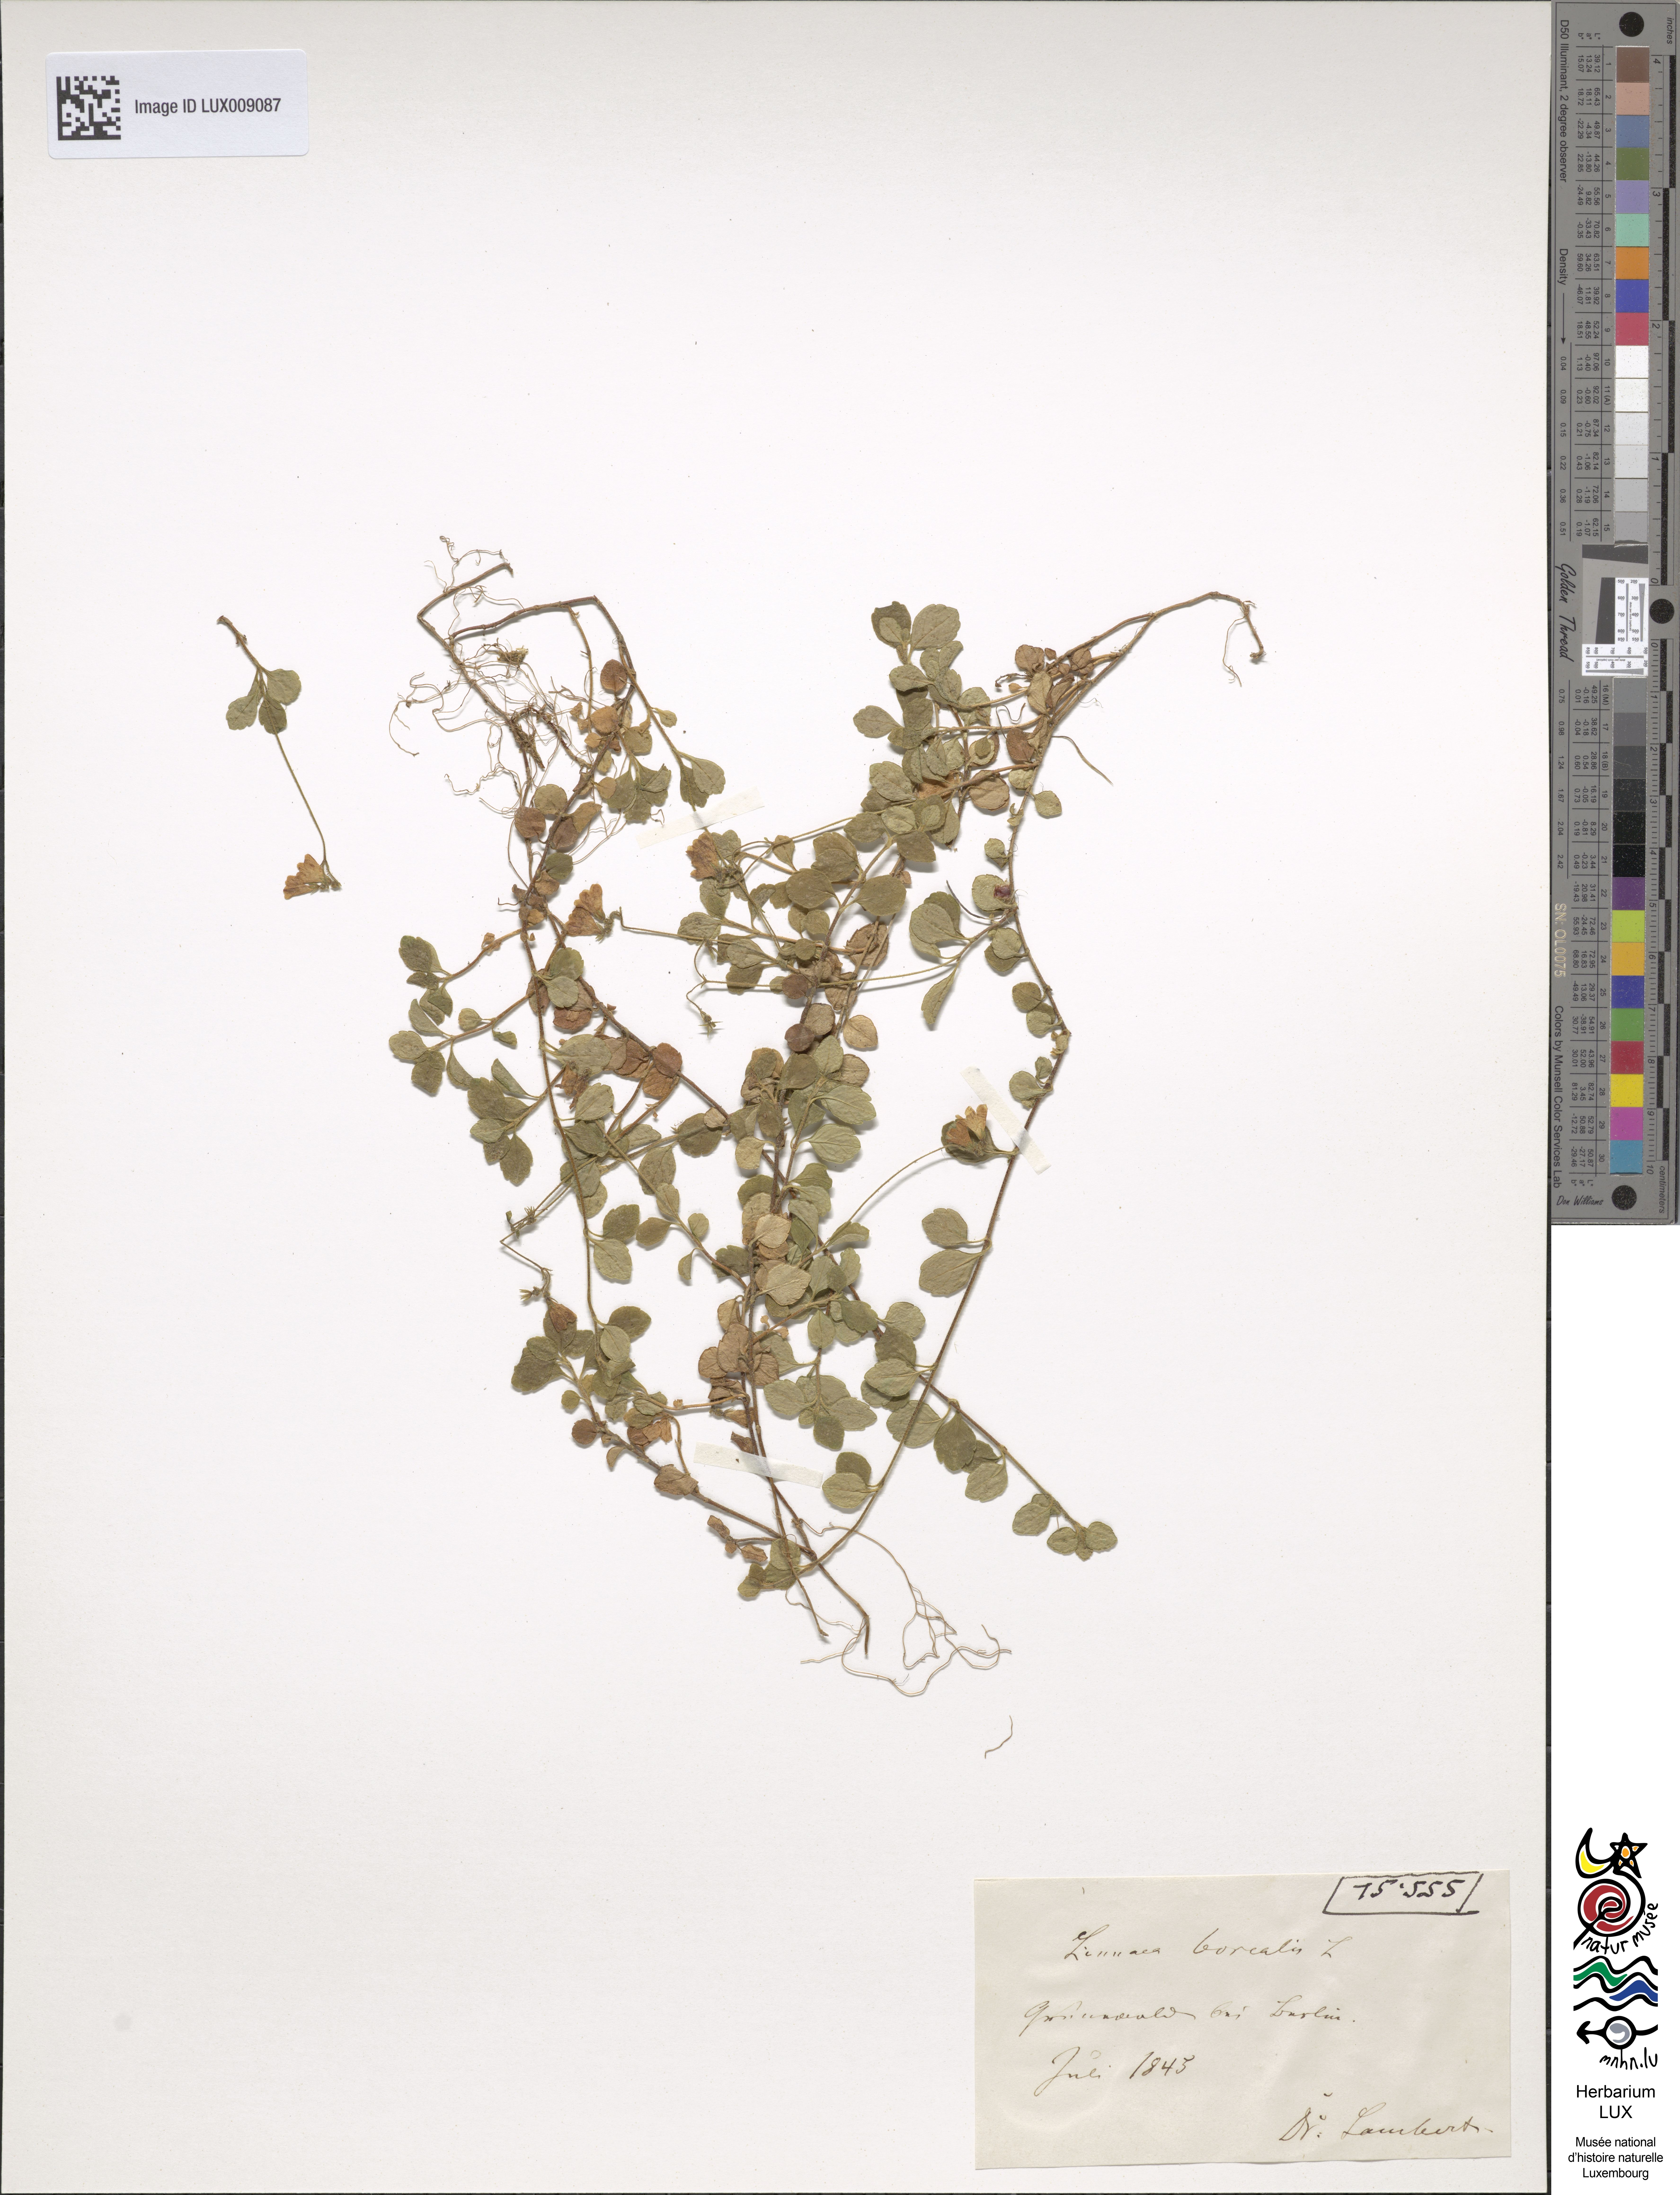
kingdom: Plantae
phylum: Tracheophyta
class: Magnoliopsida
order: Dipsacales
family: Caprifoliaceae
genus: Linnaea
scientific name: Linnaea borealis
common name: Twinflower
